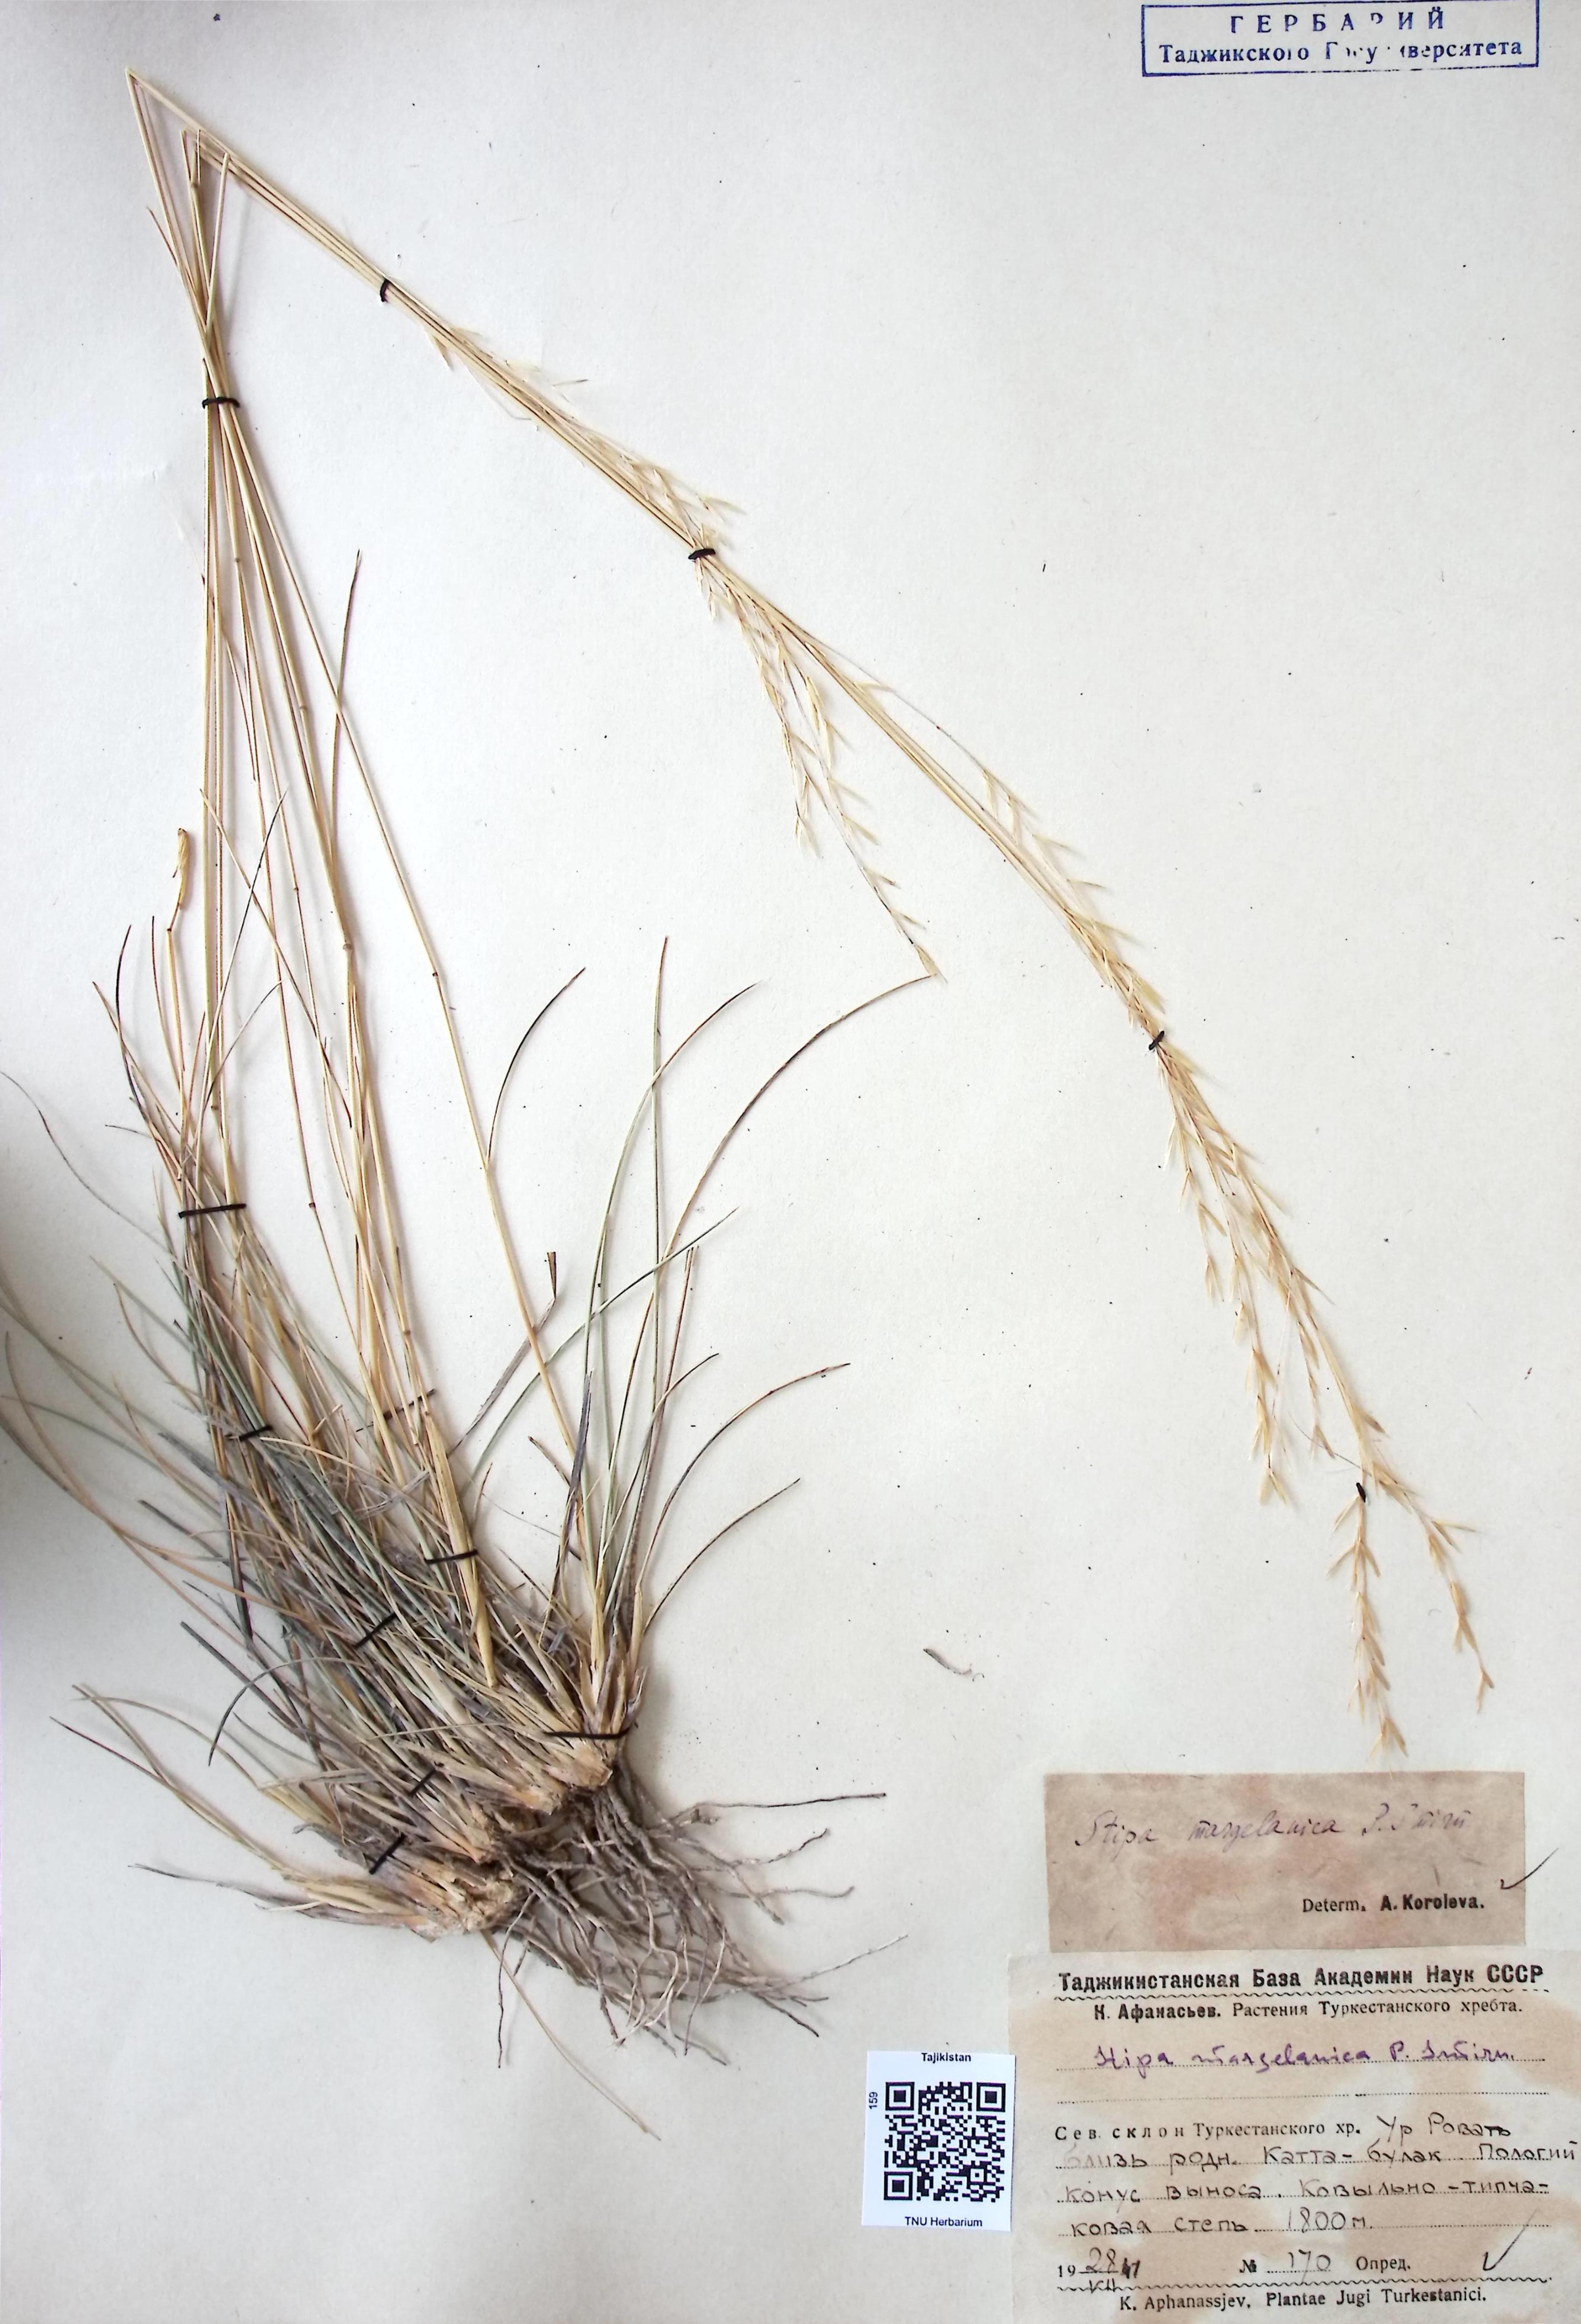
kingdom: Plantae
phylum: Tracheophyta
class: Liliopsida
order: Poales
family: Poaceae
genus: Stipa
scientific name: Stipa margelanica
